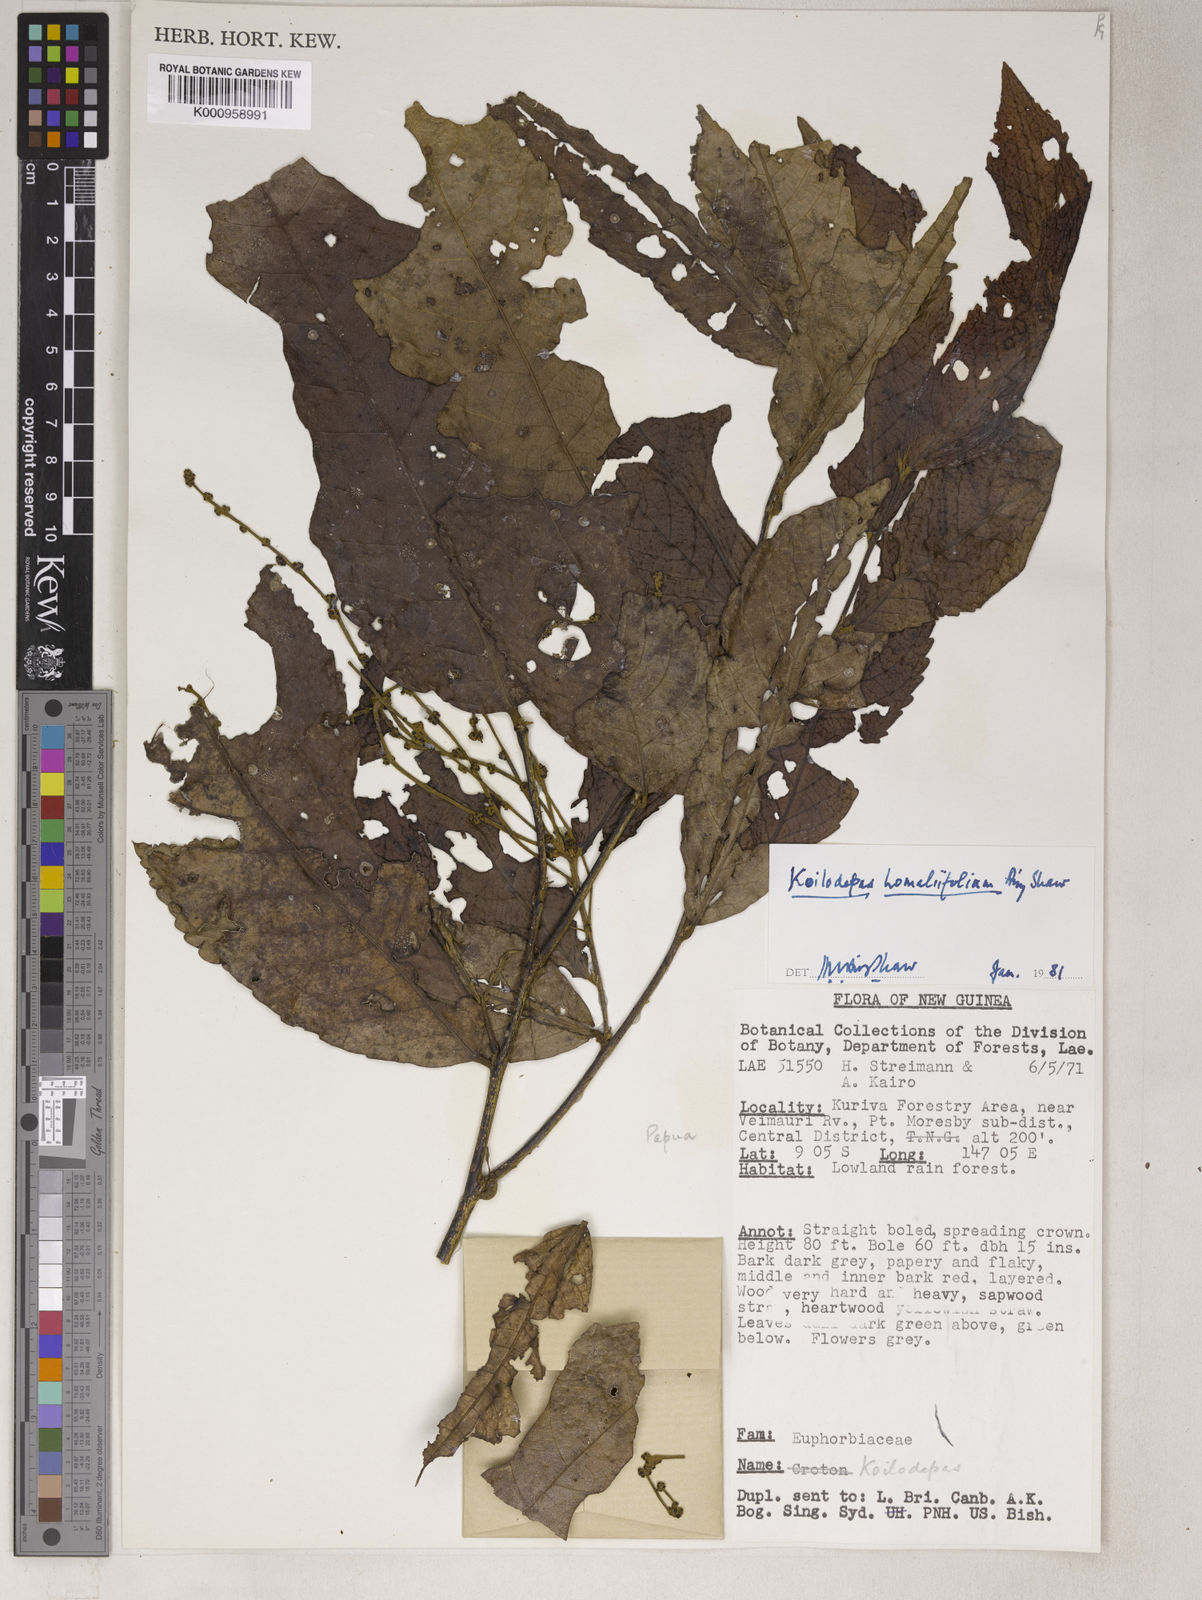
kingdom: Plantae
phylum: Tracheophyta
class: Magnoliopsida
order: Malpighiales
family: Euphorbiaceae
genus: Koilodepas
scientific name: Koilodepas homaliifolium
